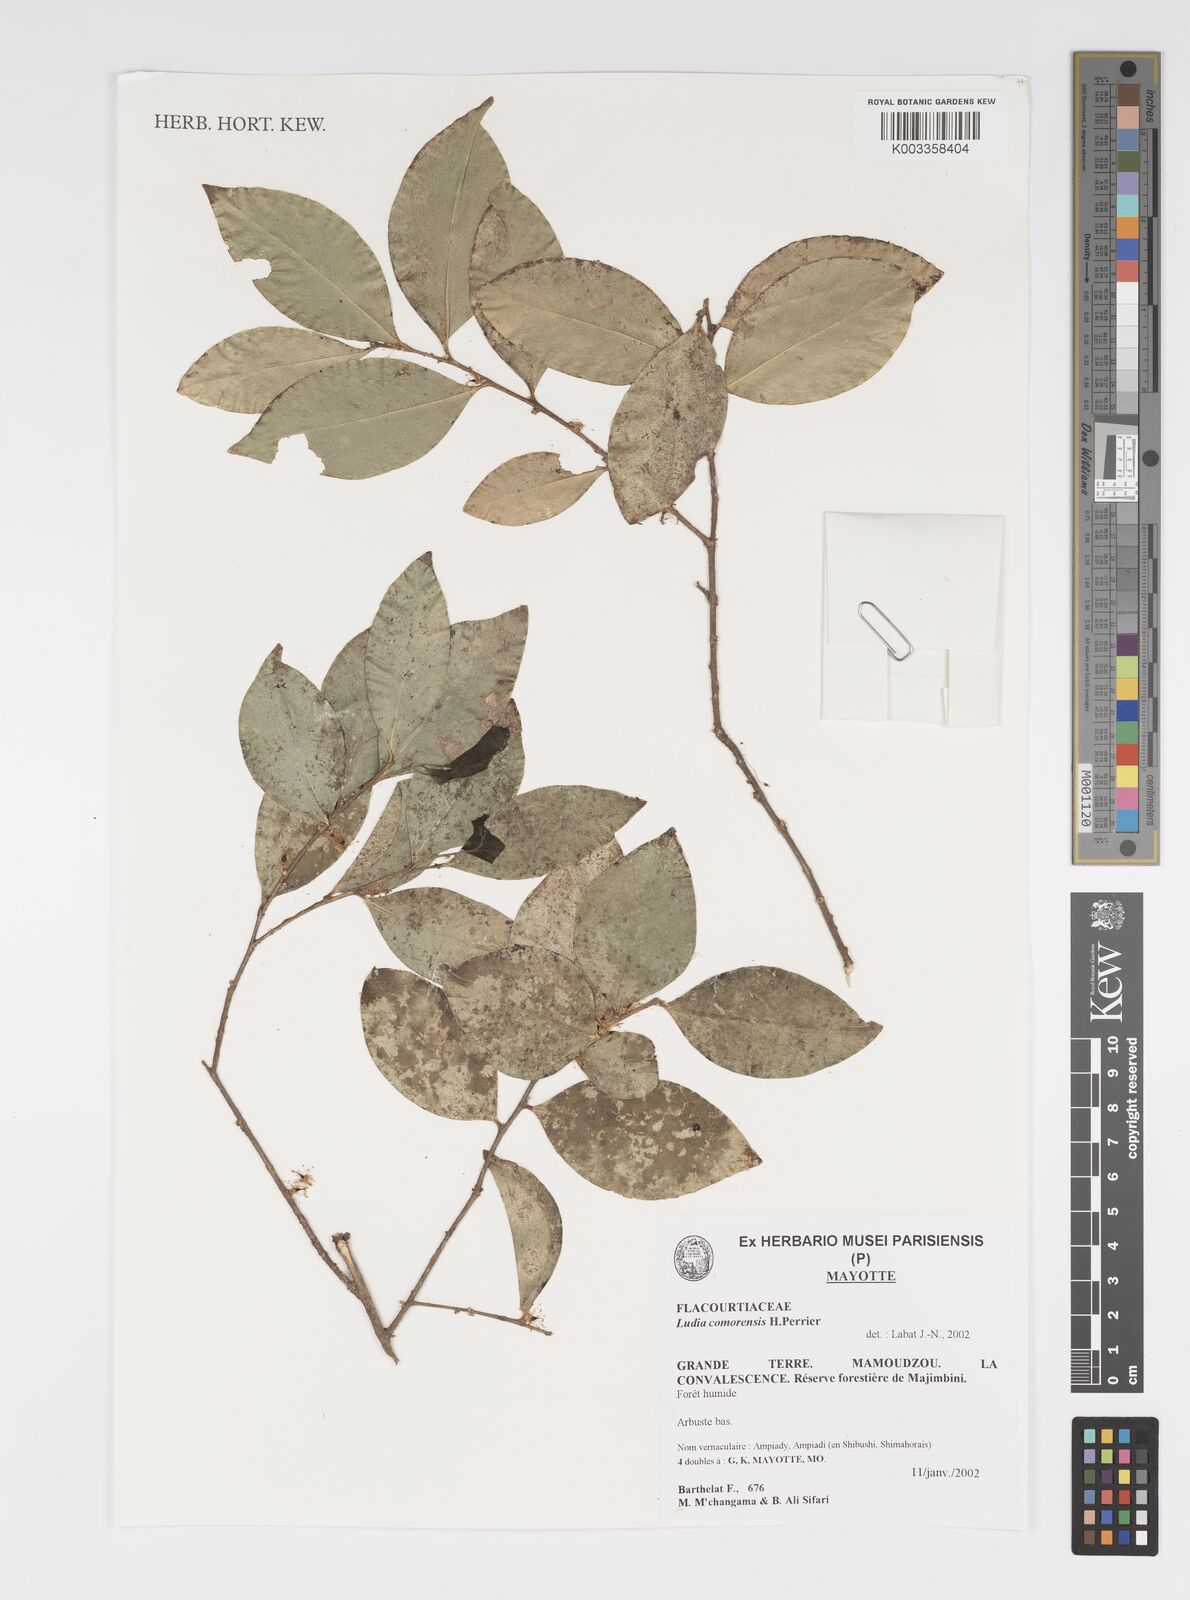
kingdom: Plantae
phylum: Tracheophyta
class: Magnoliopsida
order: Malpighiales
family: Salicaceae
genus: Ludia
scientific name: Ludia comorensis
